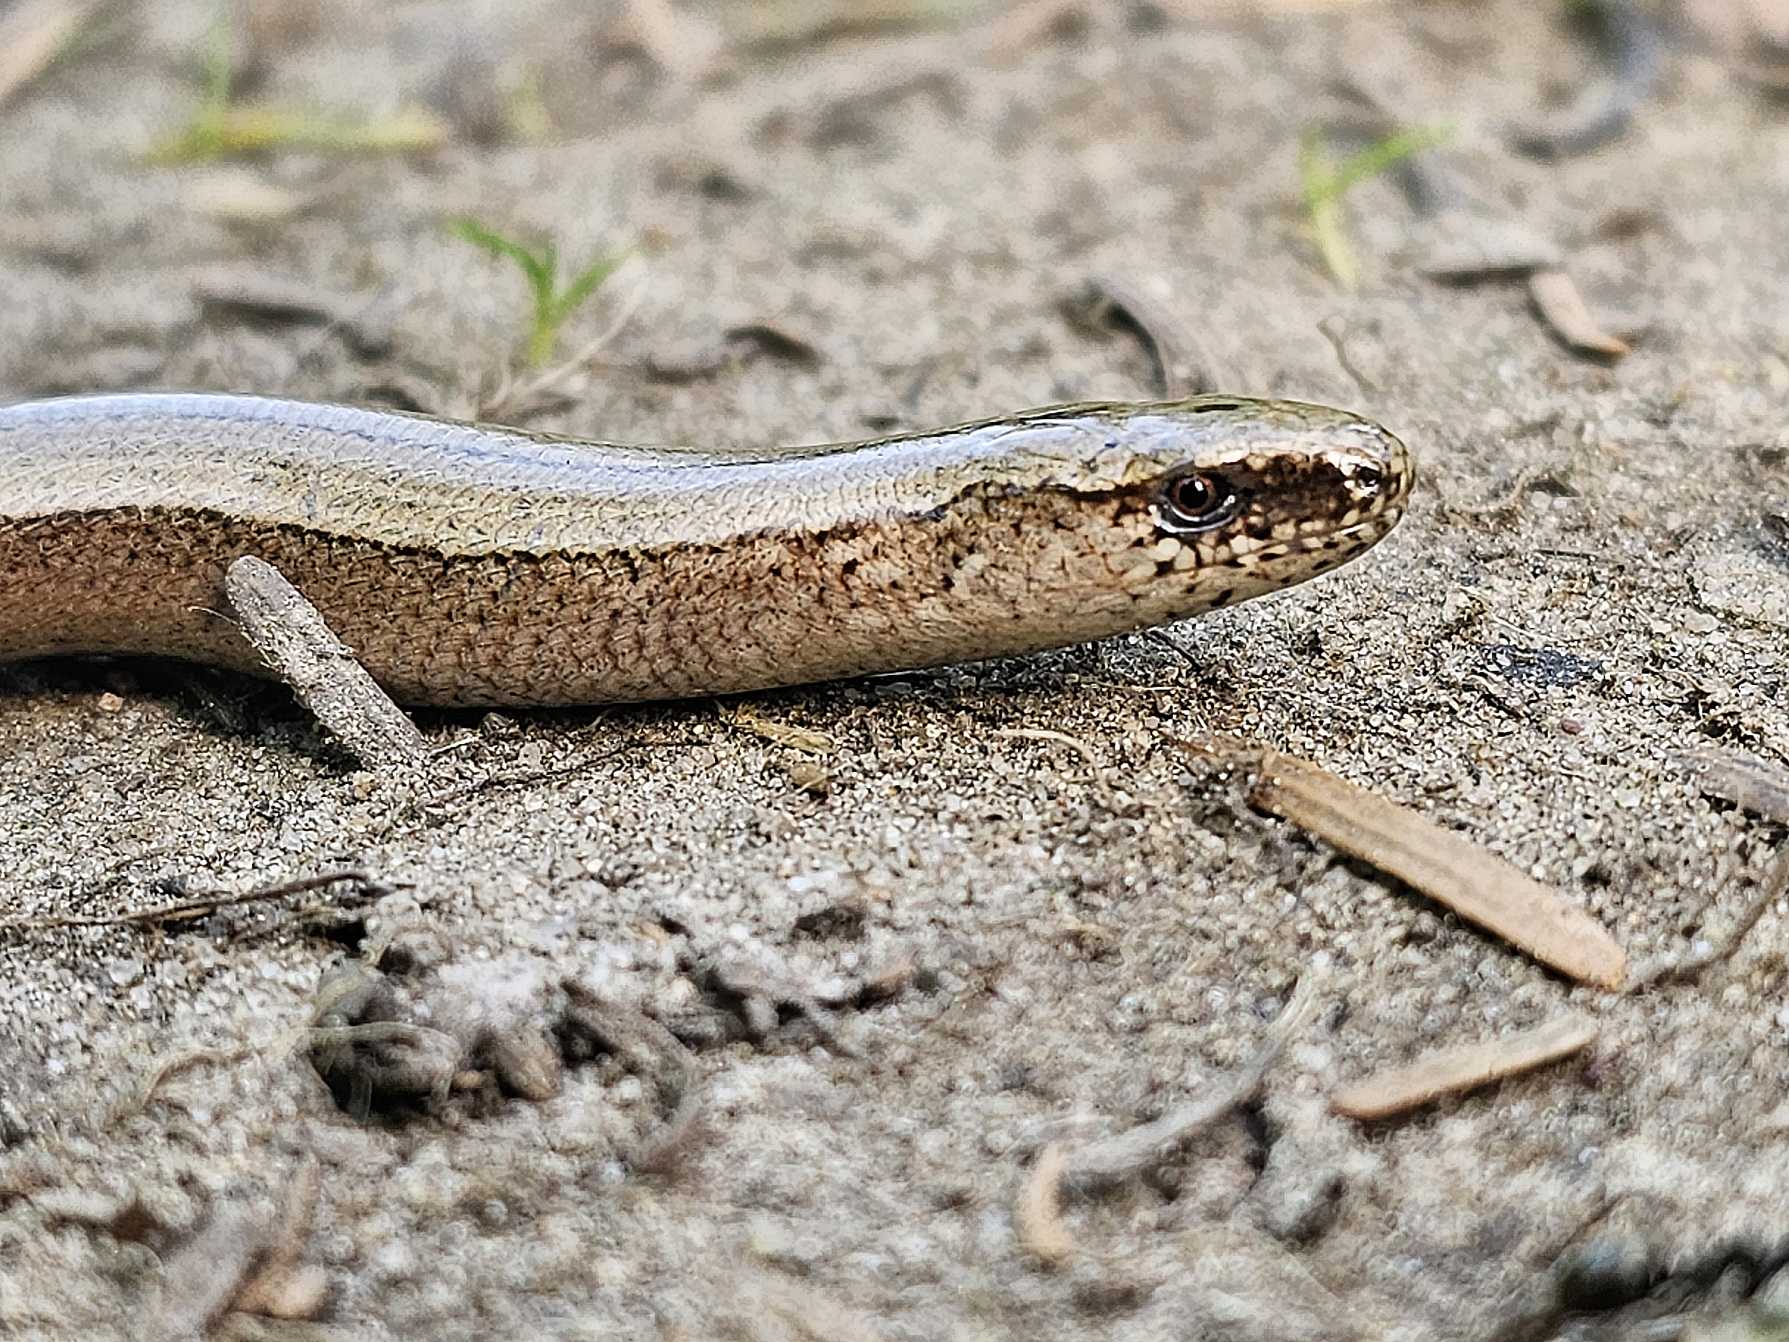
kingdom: Animalia
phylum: Chordata
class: Squamata
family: Anguidae
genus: Anguis
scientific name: Anguis fragilis
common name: Stålorm
